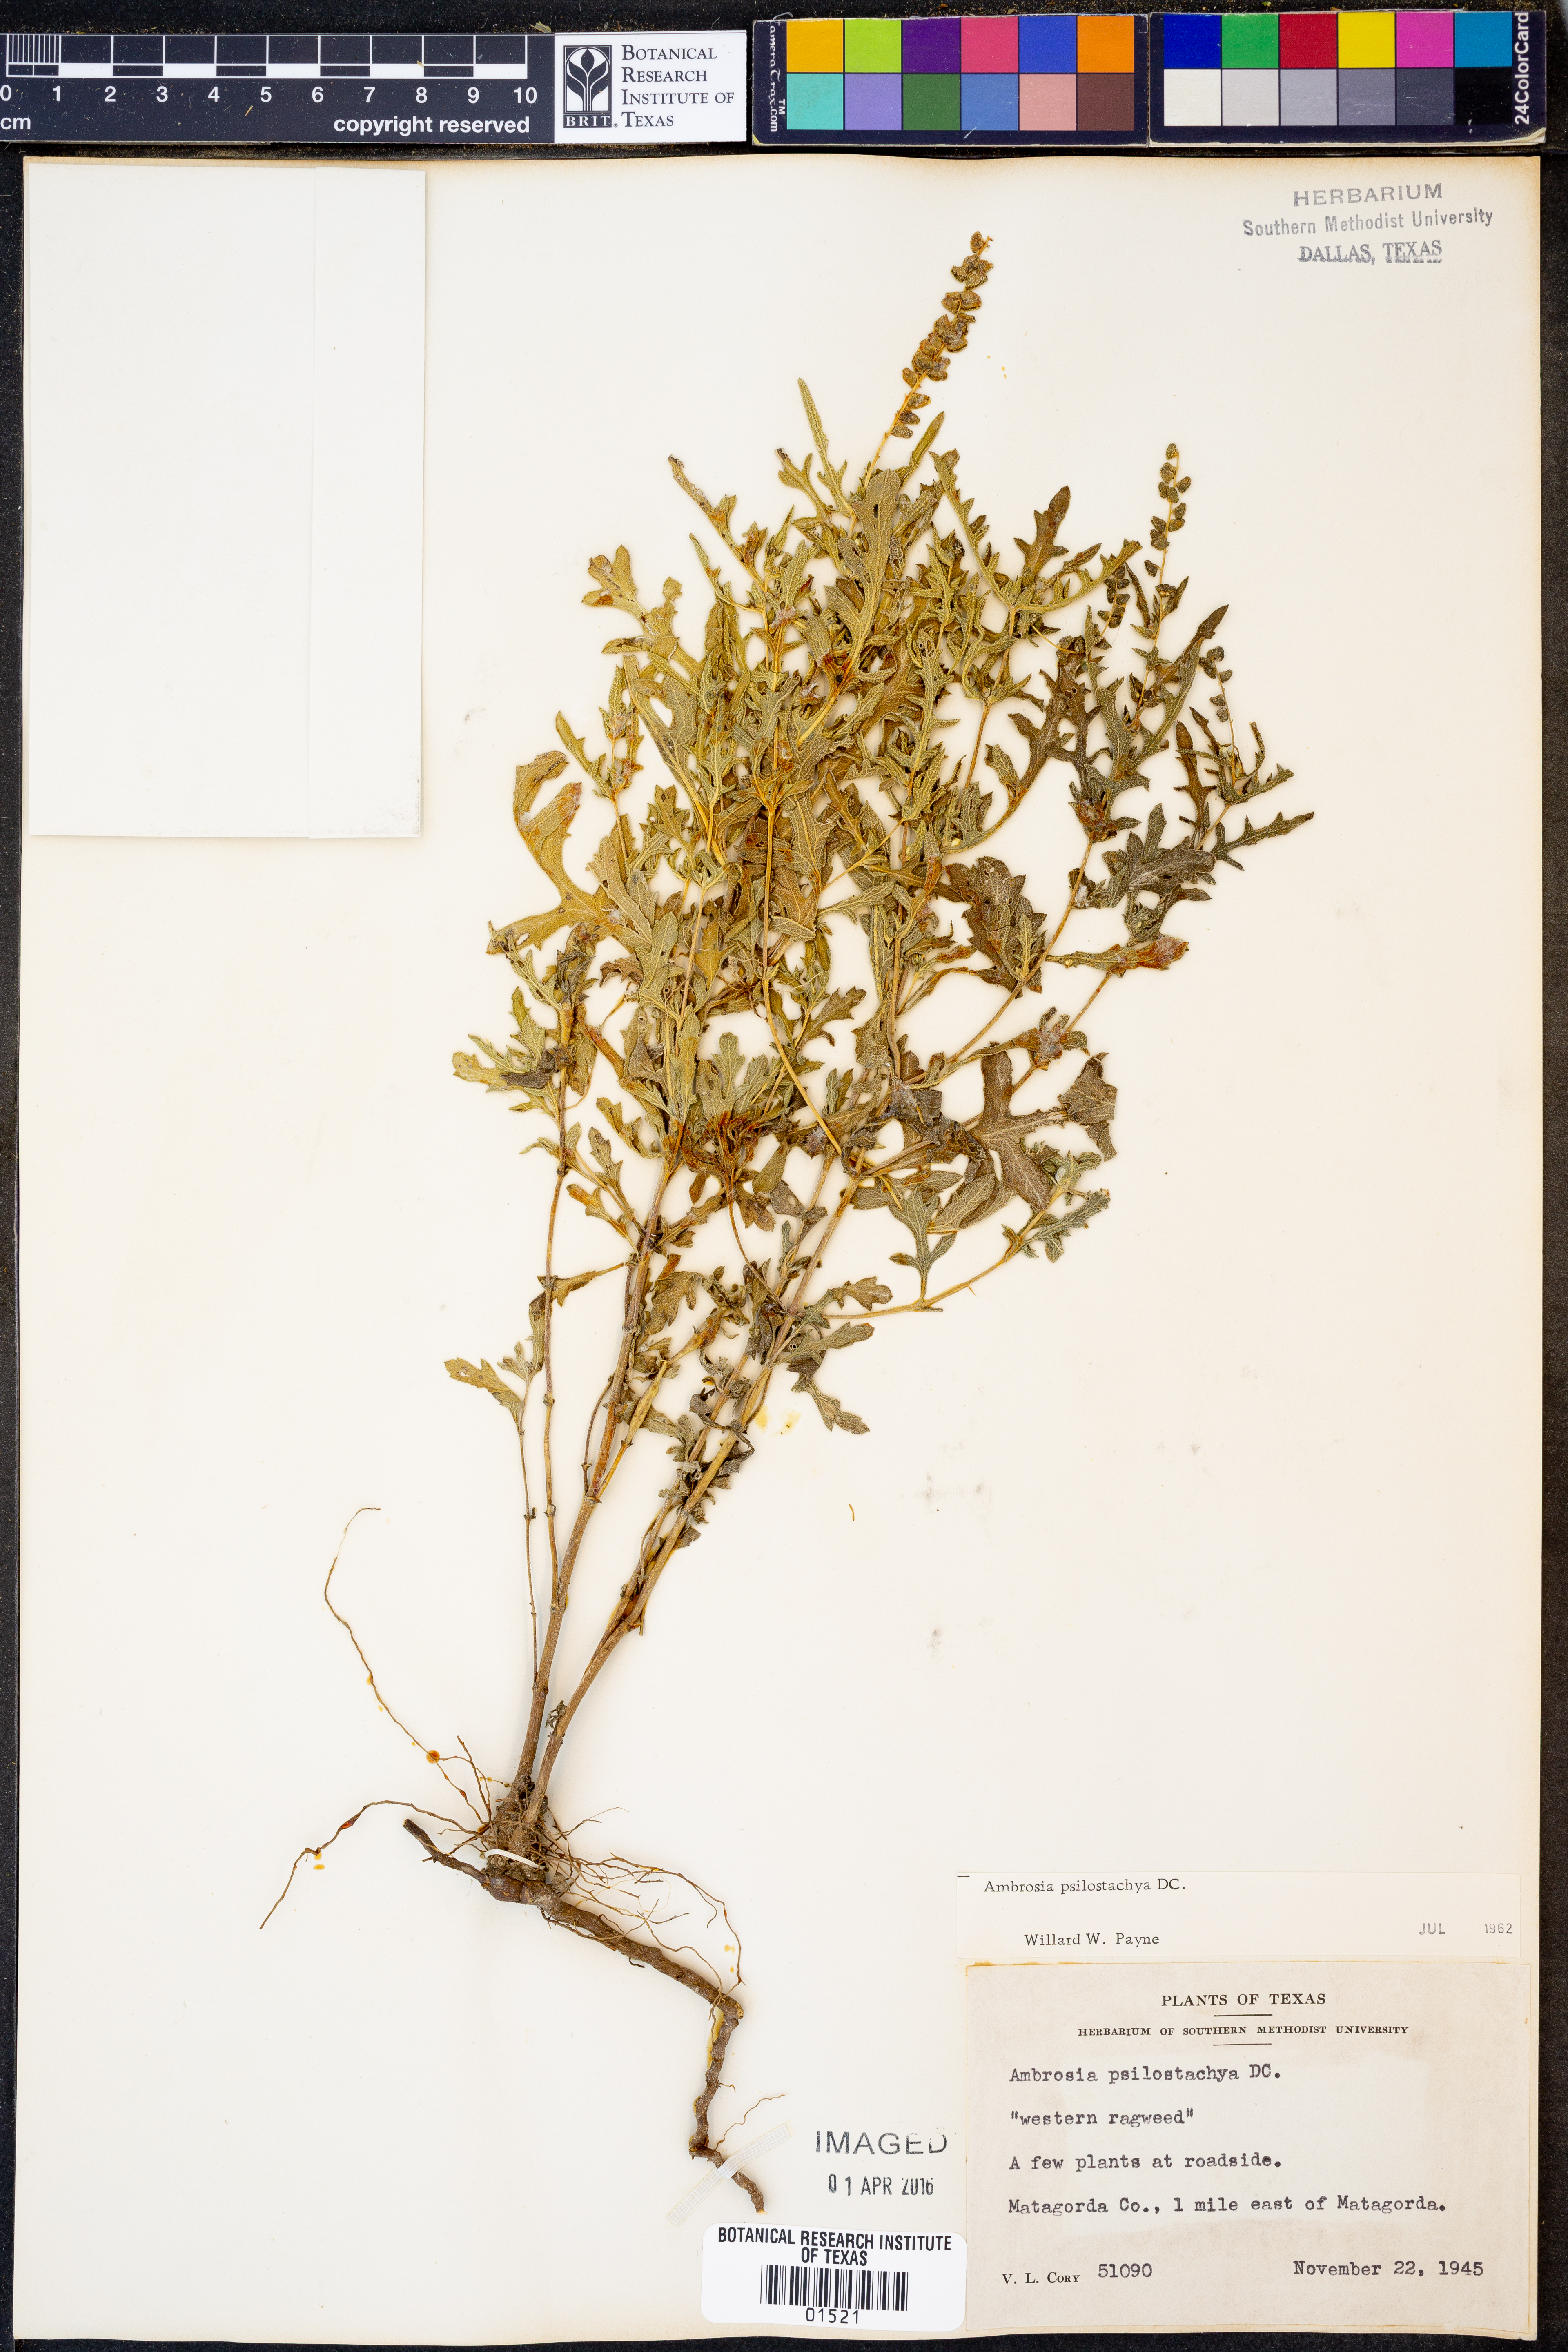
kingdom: Plantae
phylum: Tracheophyta
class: Magnoliopsida
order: Asterales
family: Asteraceae
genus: Ambrosia
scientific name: Ambrosia psilostachya
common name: Perennial ragweed
